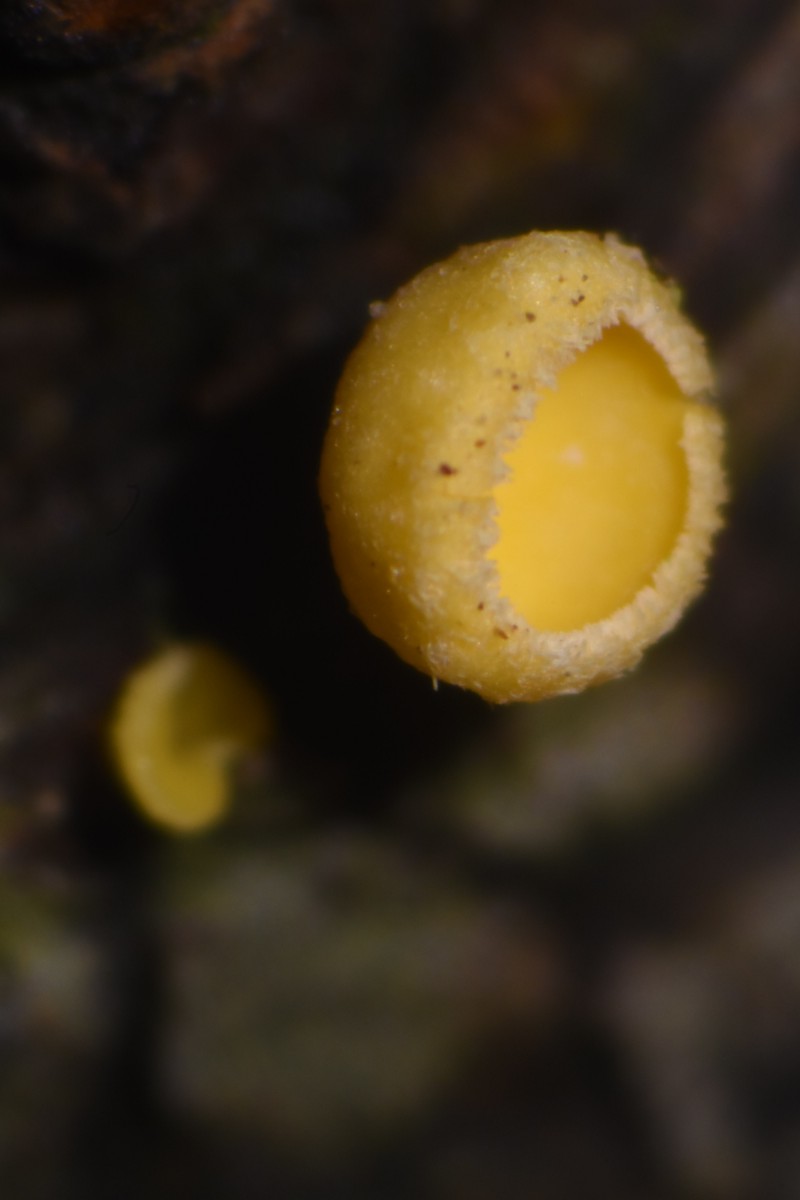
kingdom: Fungi
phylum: Ascomycota
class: Leotiomycetes
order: Helotiales
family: Lachnaceae
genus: Lachnellula
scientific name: Lachnellula subtilissima
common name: gran-frynseskive
